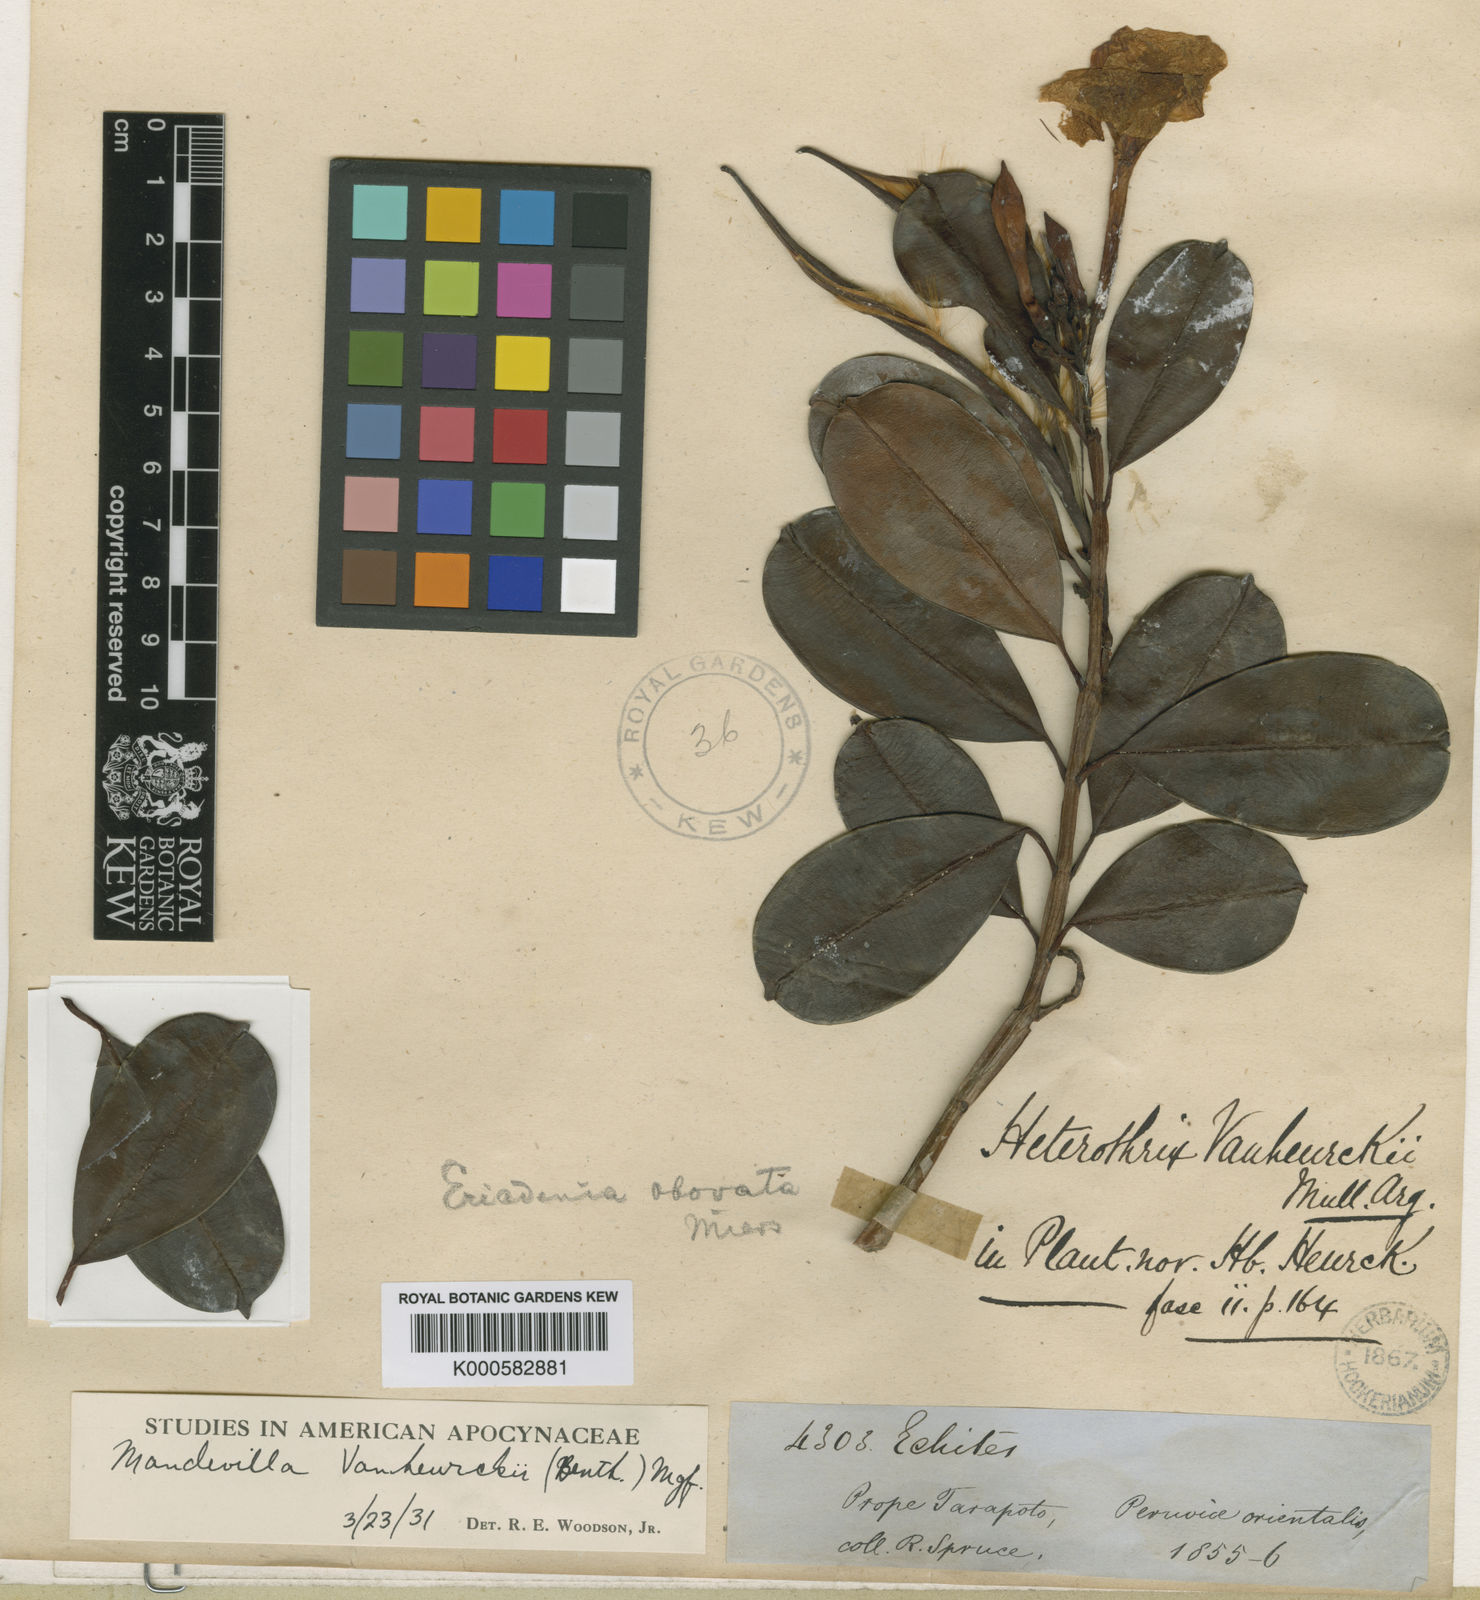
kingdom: Plantae
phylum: Tracheophyta
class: Magnoliopsida
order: Gentianales
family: Apocynaceae
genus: Mandevilla
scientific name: Mandevilla hirsuta
